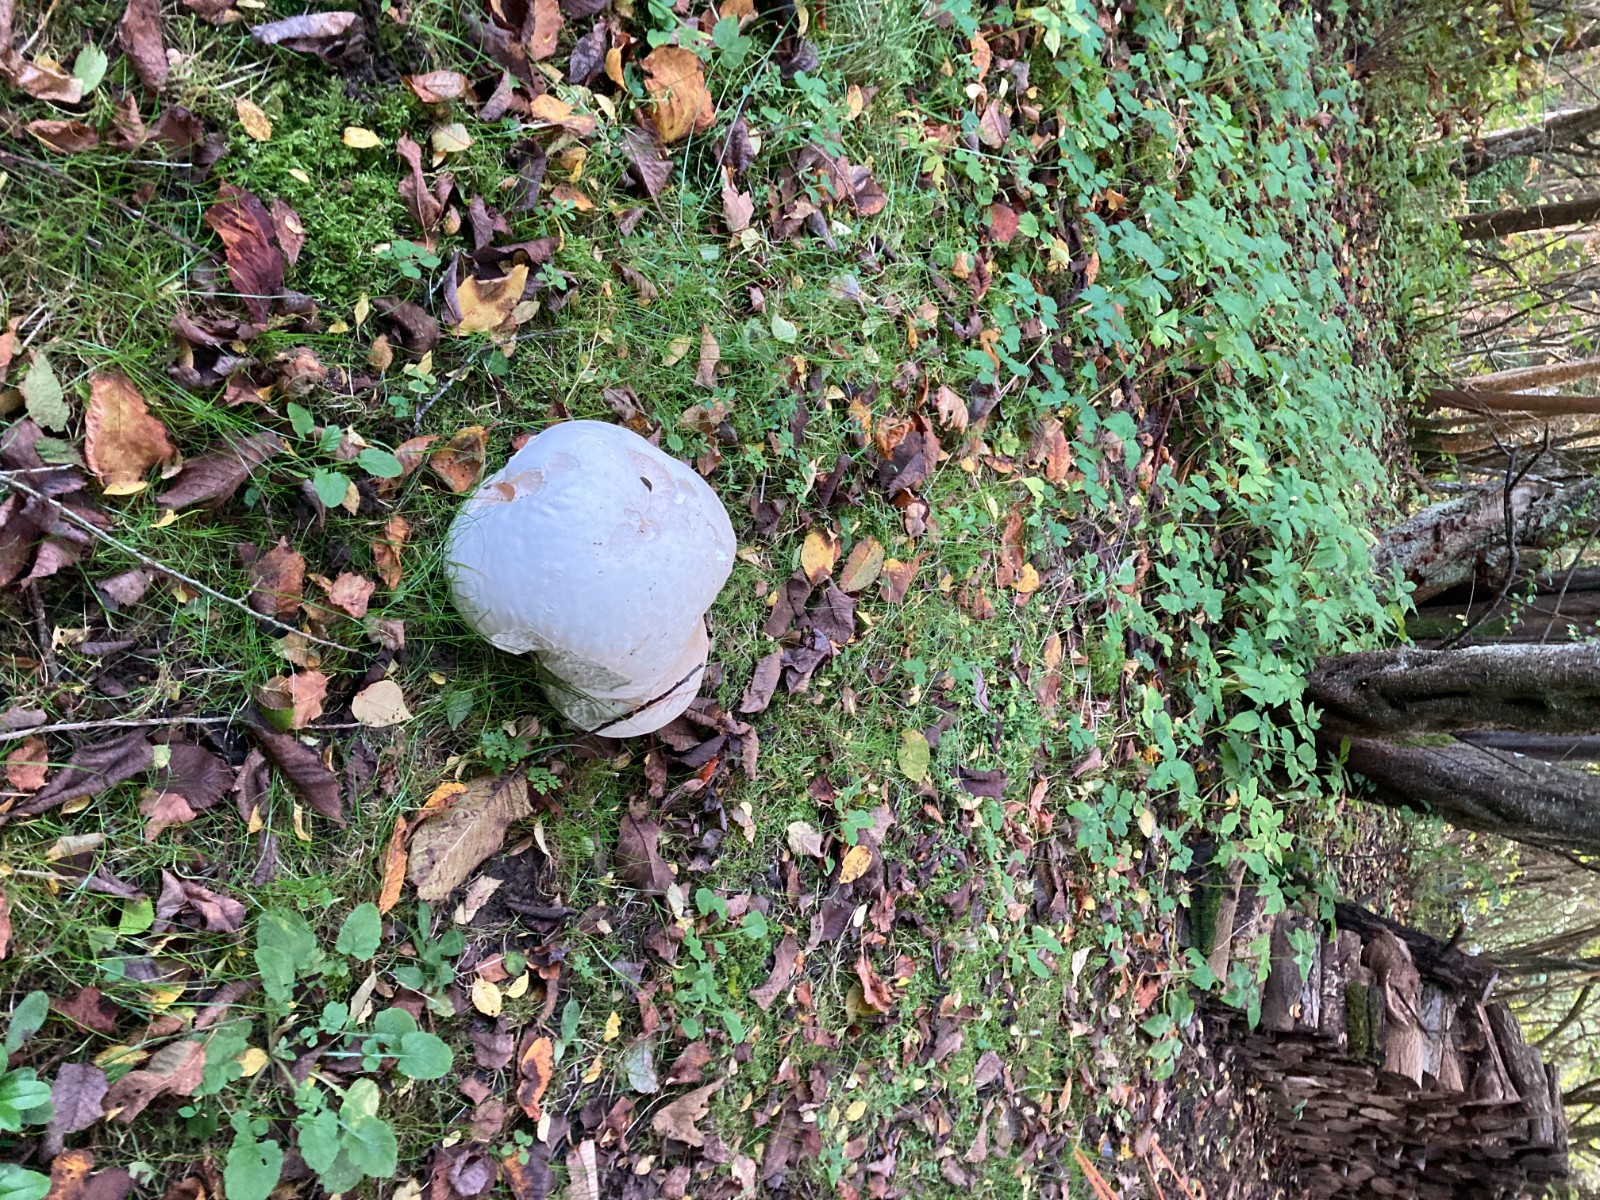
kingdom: Fungi
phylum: Basidiomycota
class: Agaricomycetes
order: Agaricales
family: Lycoperdaceae
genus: Calvatia
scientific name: Calvatia gigantea
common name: kæmpestøvbold
